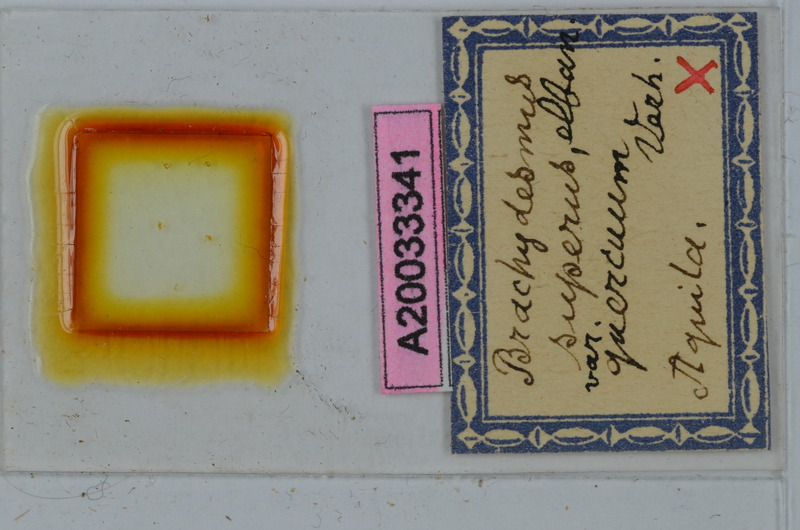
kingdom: Animalia
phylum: Arthropoda
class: Diplopoda
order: Polydesmida
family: Polydesmidae
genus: Brachydesmus
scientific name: Brachydesmus superus
